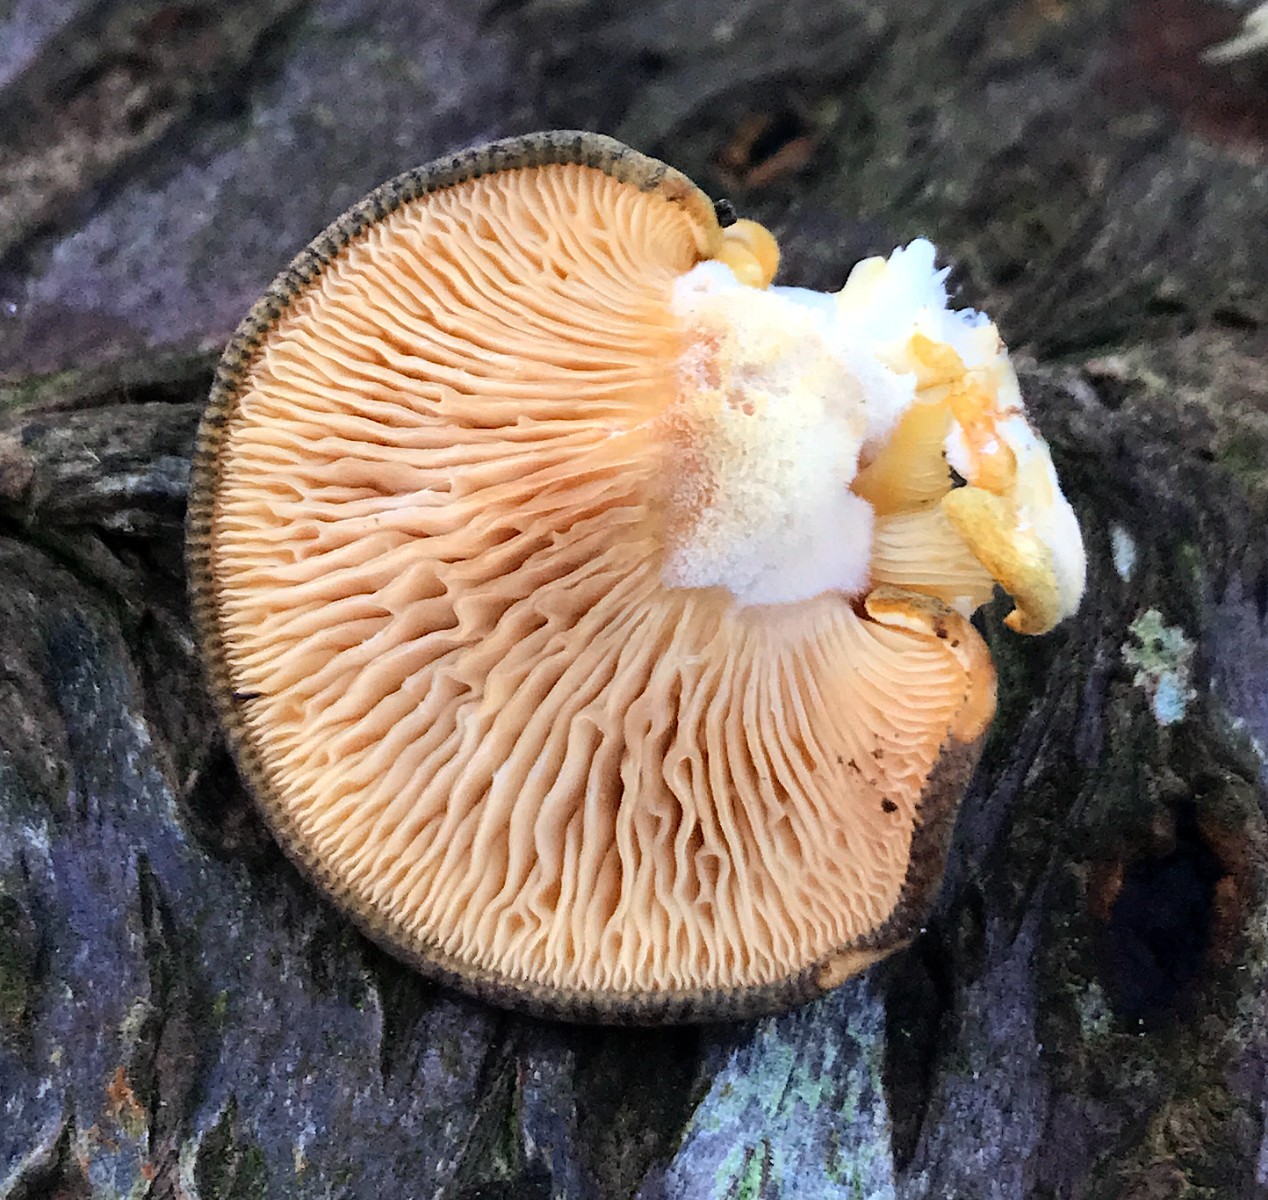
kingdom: Fungi
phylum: Basidiomycota
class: Agaricomycetes
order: Agaricales
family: Sarcomyxaceae
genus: Sarcomyxa
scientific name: Sarcomyxa serotina
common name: gummihat
